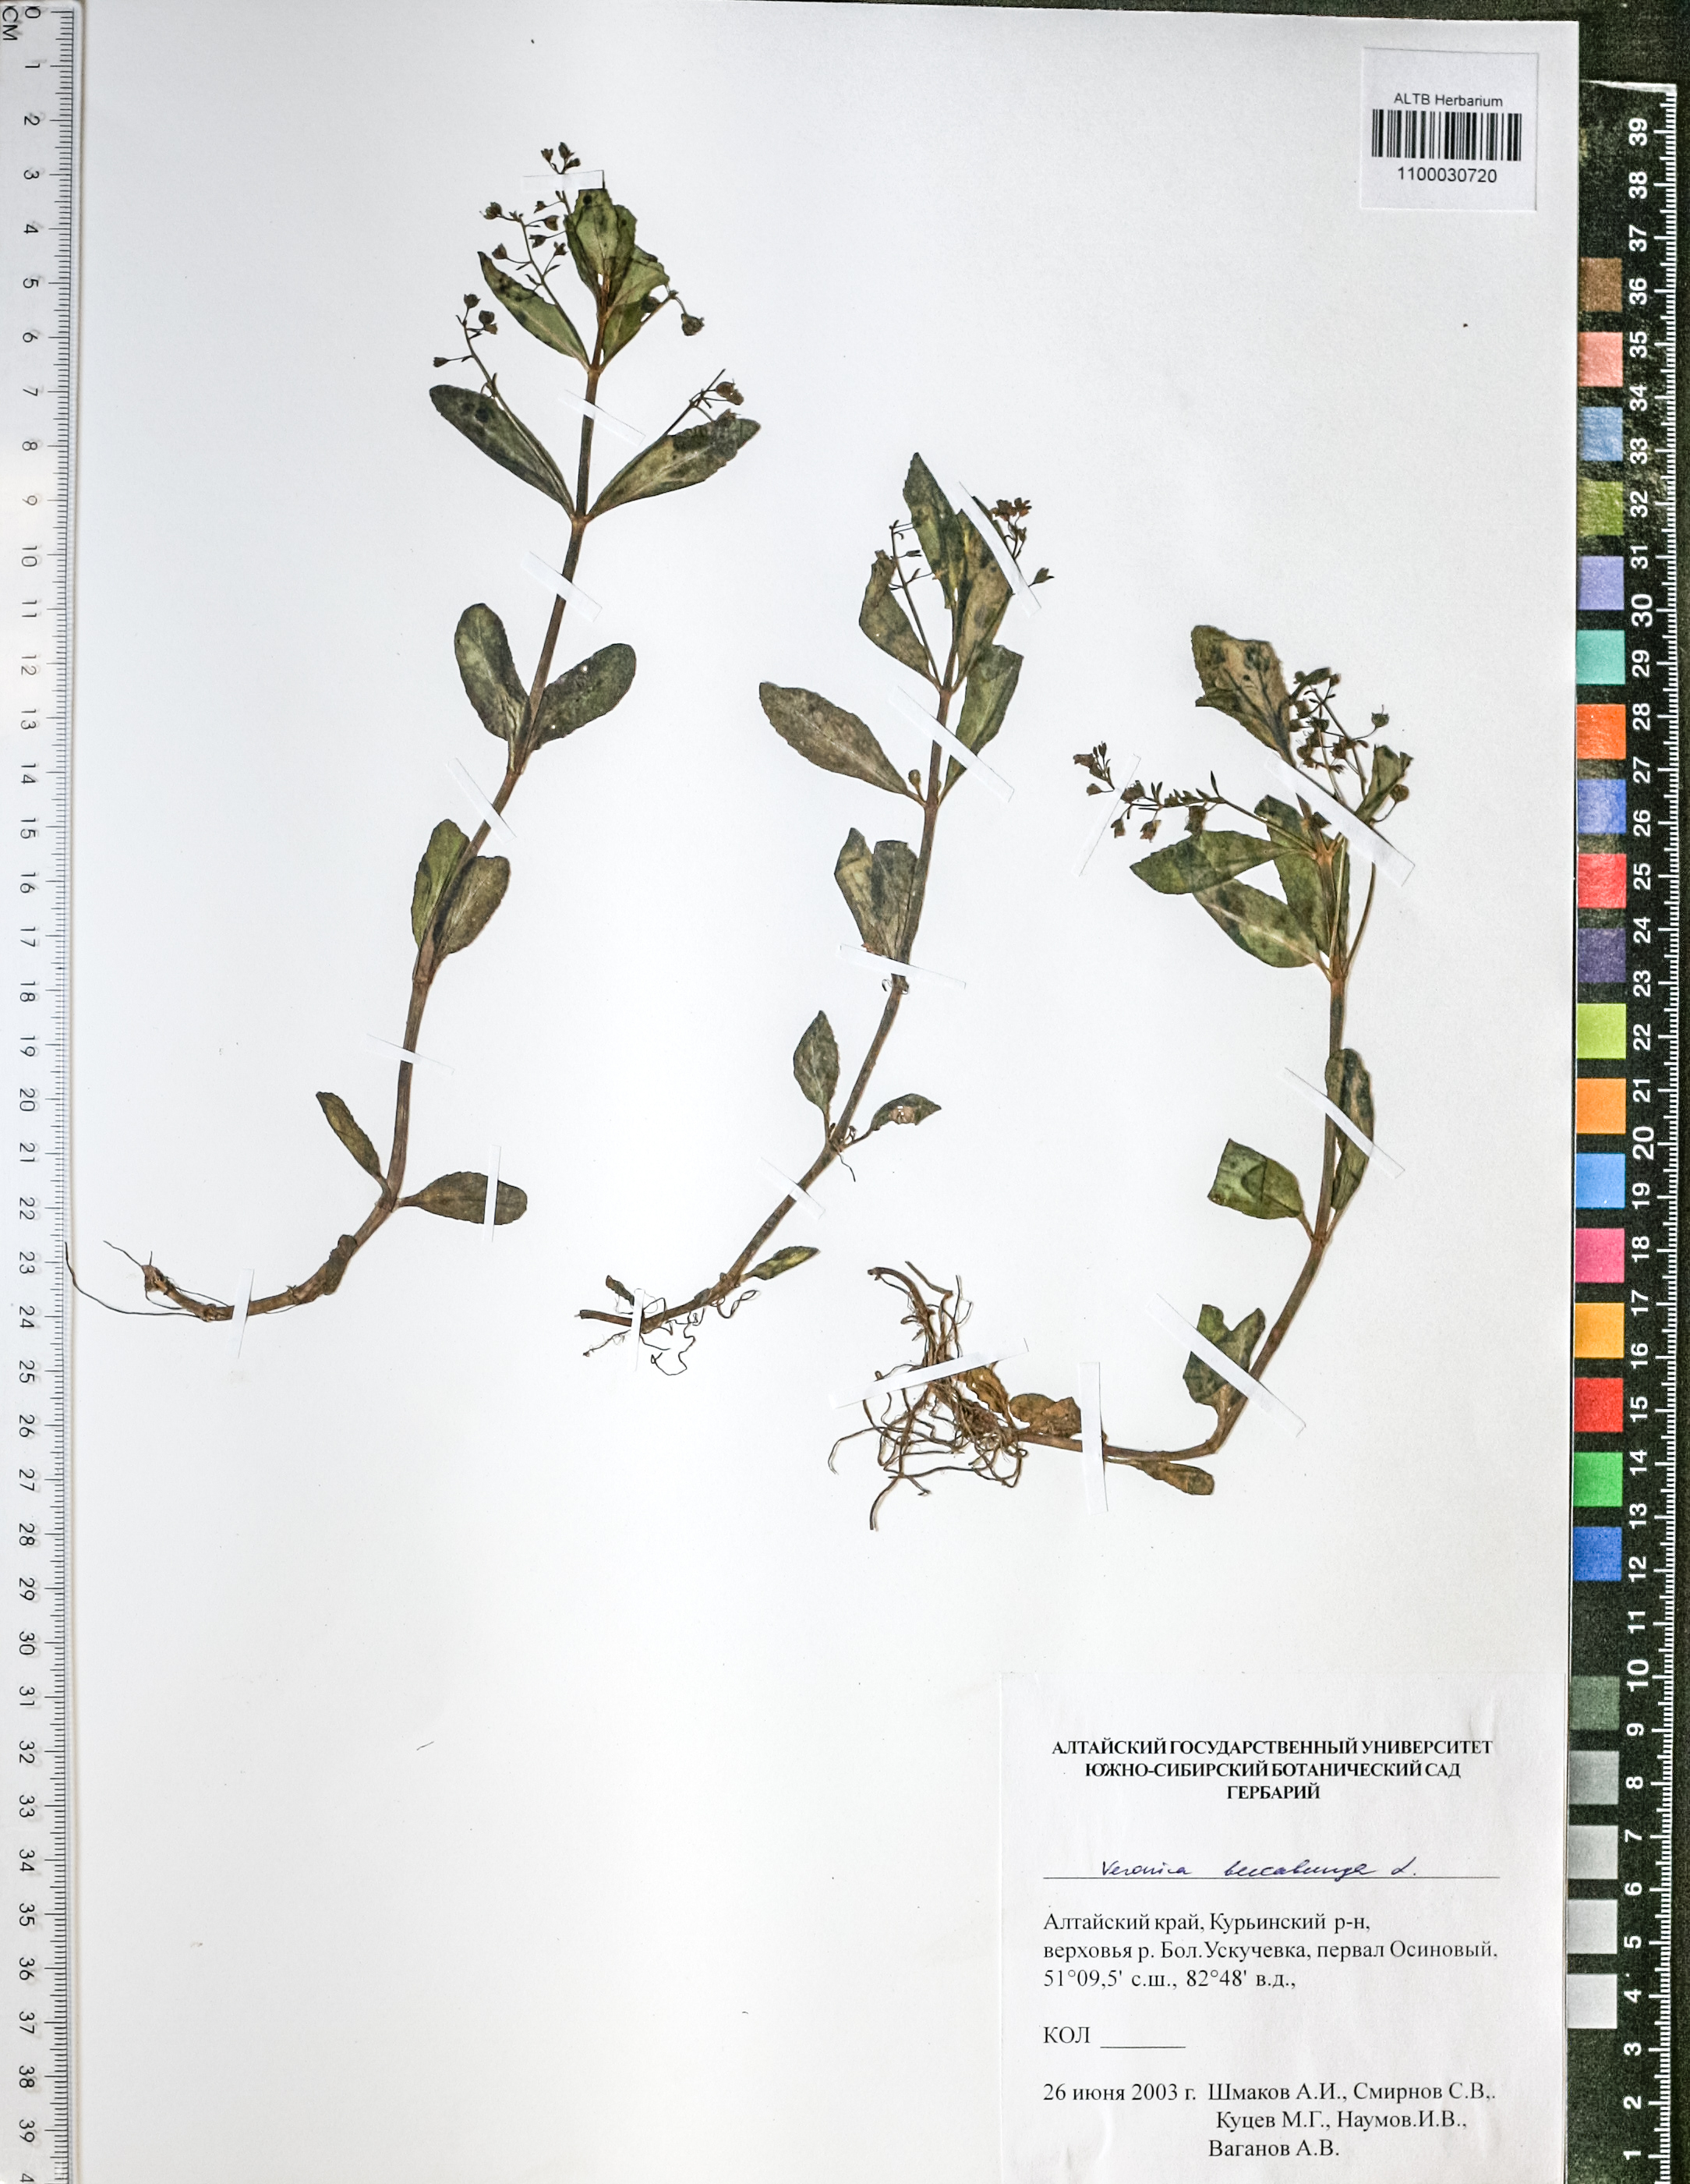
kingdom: Plantae
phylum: Tracheophyta
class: Magnoliopsida
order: Lamiales
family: Plantaginaceae
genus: Veronica
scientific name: Veronica beccabunga
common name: Brooklime
